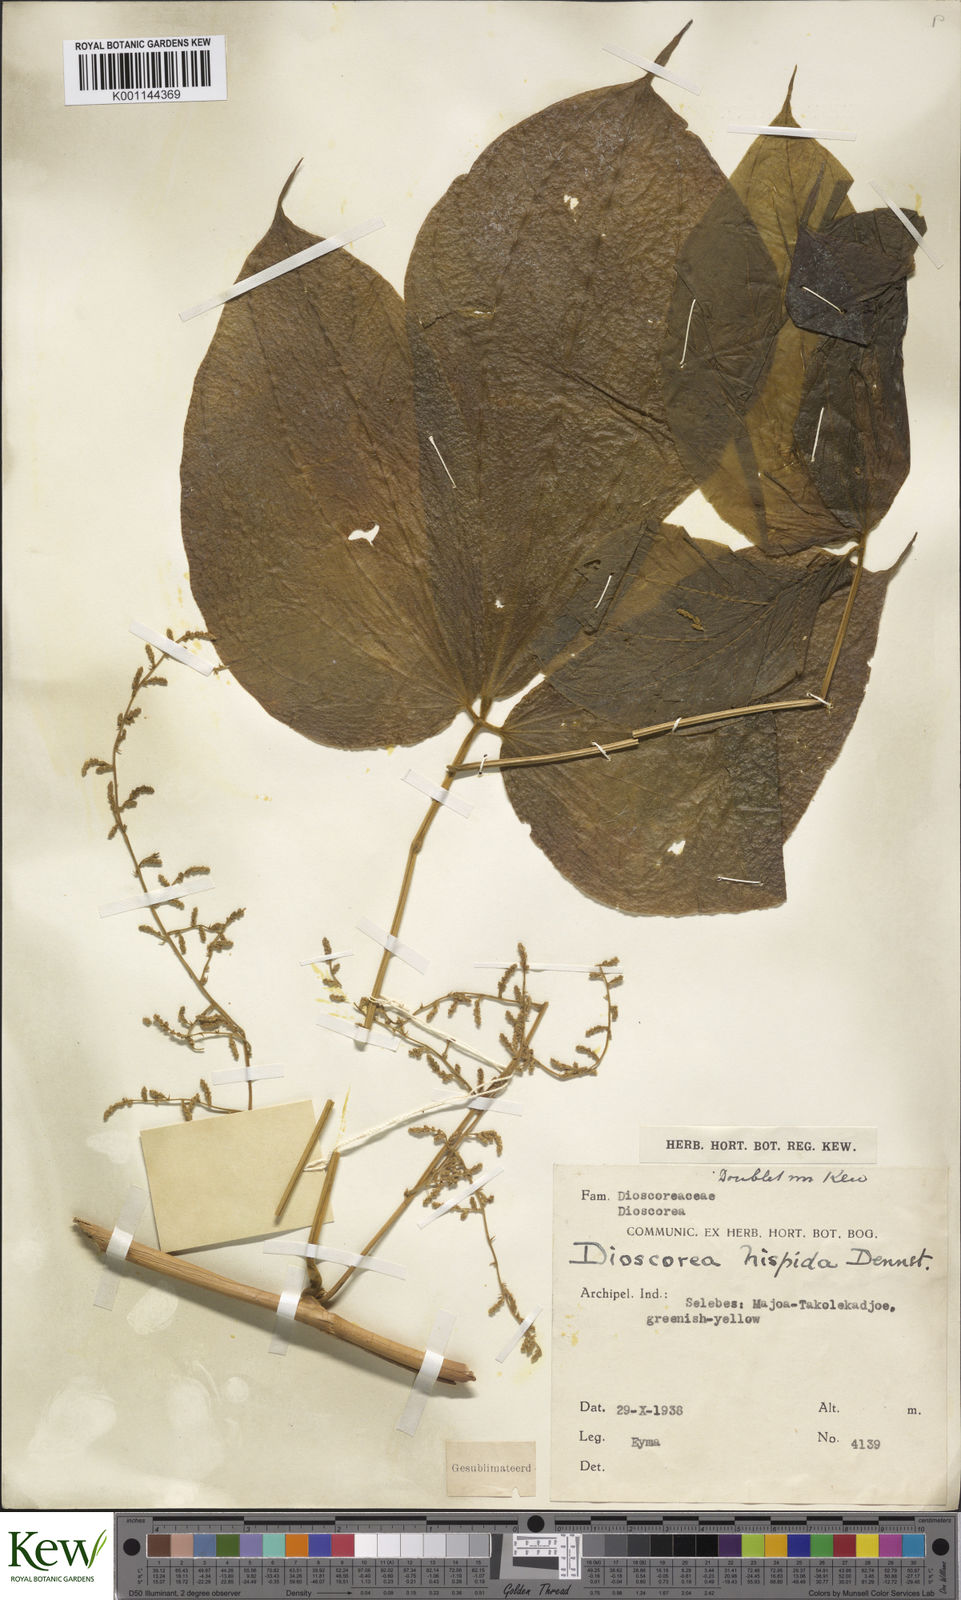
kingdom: Plantae
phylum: Tracheophyta
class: Liliopsida
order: Dioscoreales
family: Dioscoreaceae
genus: Dioscorea
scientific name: Dioscorea hispida
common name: Asiatic bitter yam
